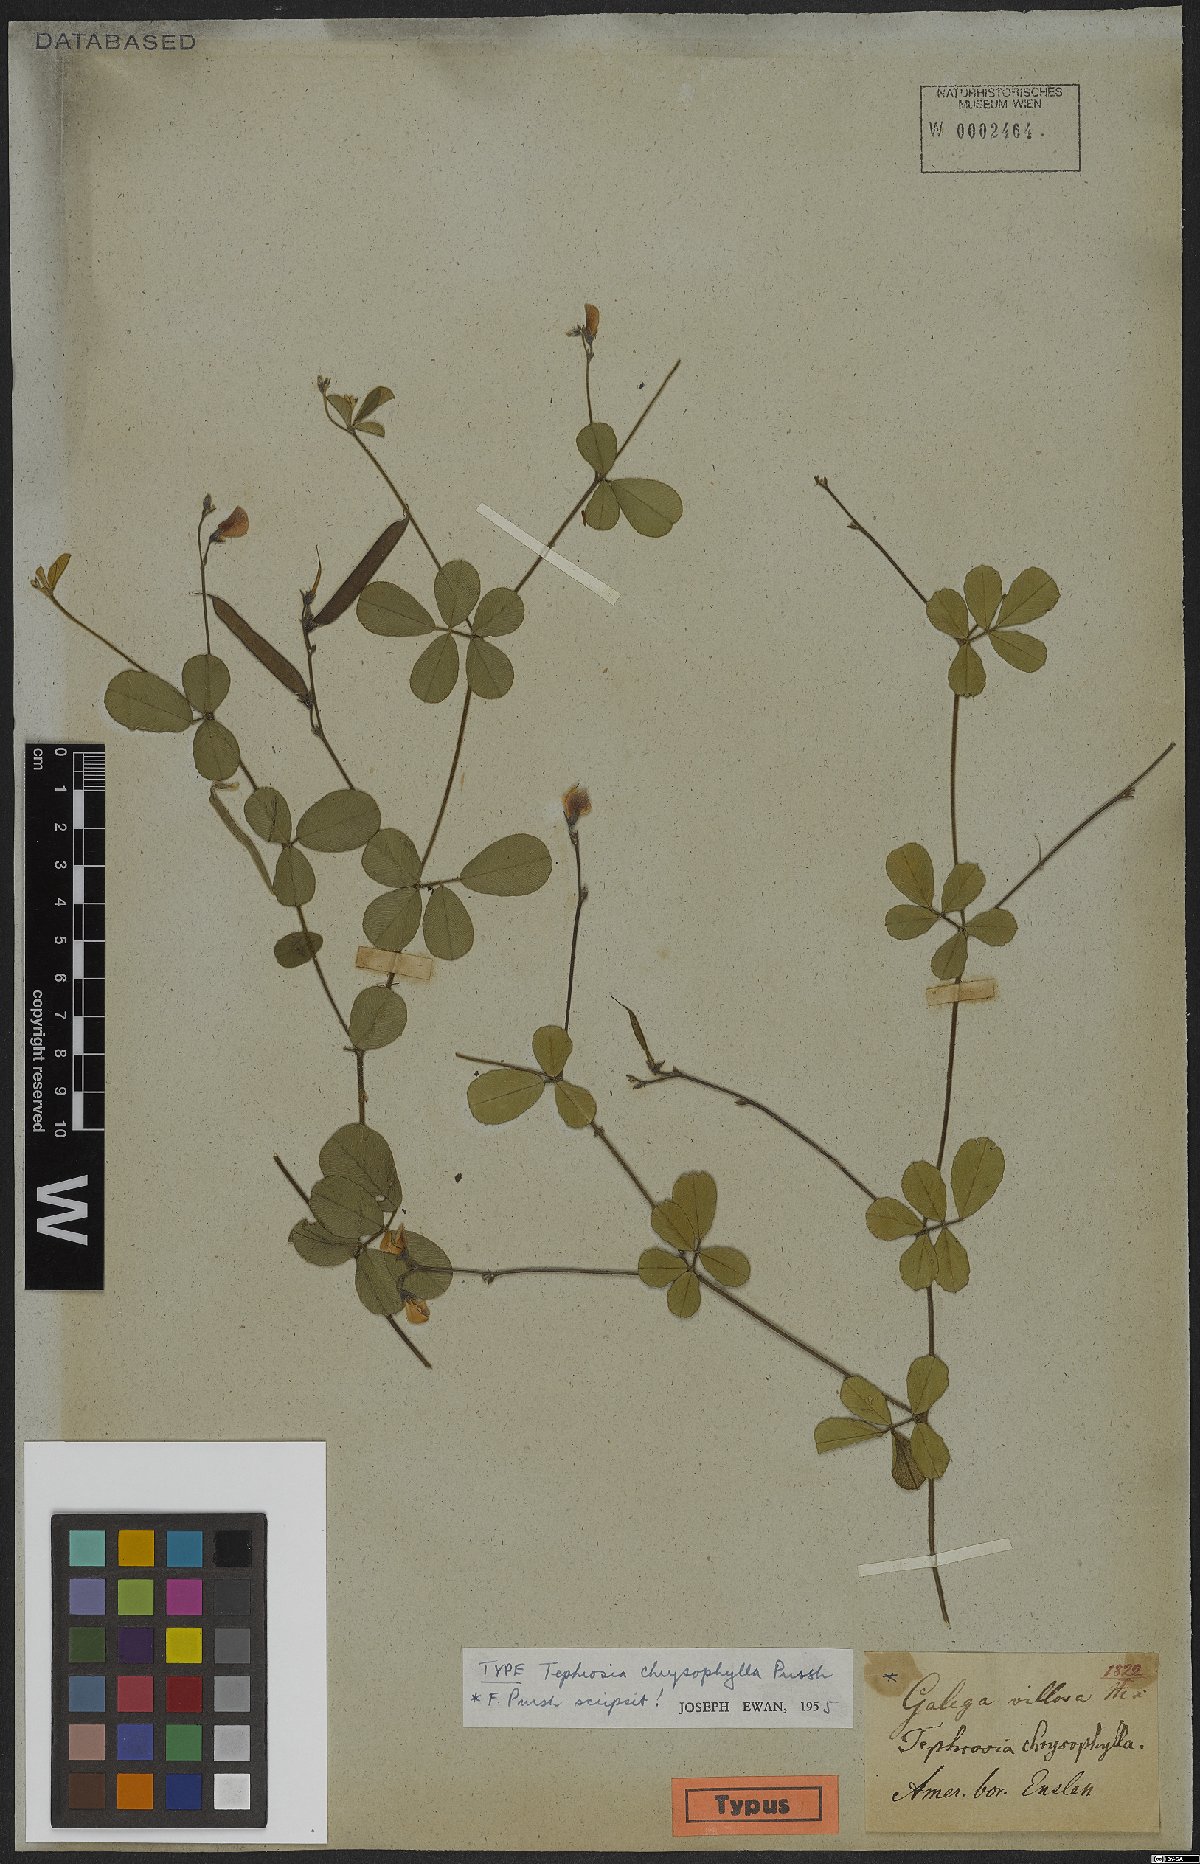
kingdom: Plantae
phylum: Tracheophyta
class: Magnoliopsida
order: Fabales
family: Fabaceae
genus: Tephrosia
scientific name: Tephrosia chrysophylla
